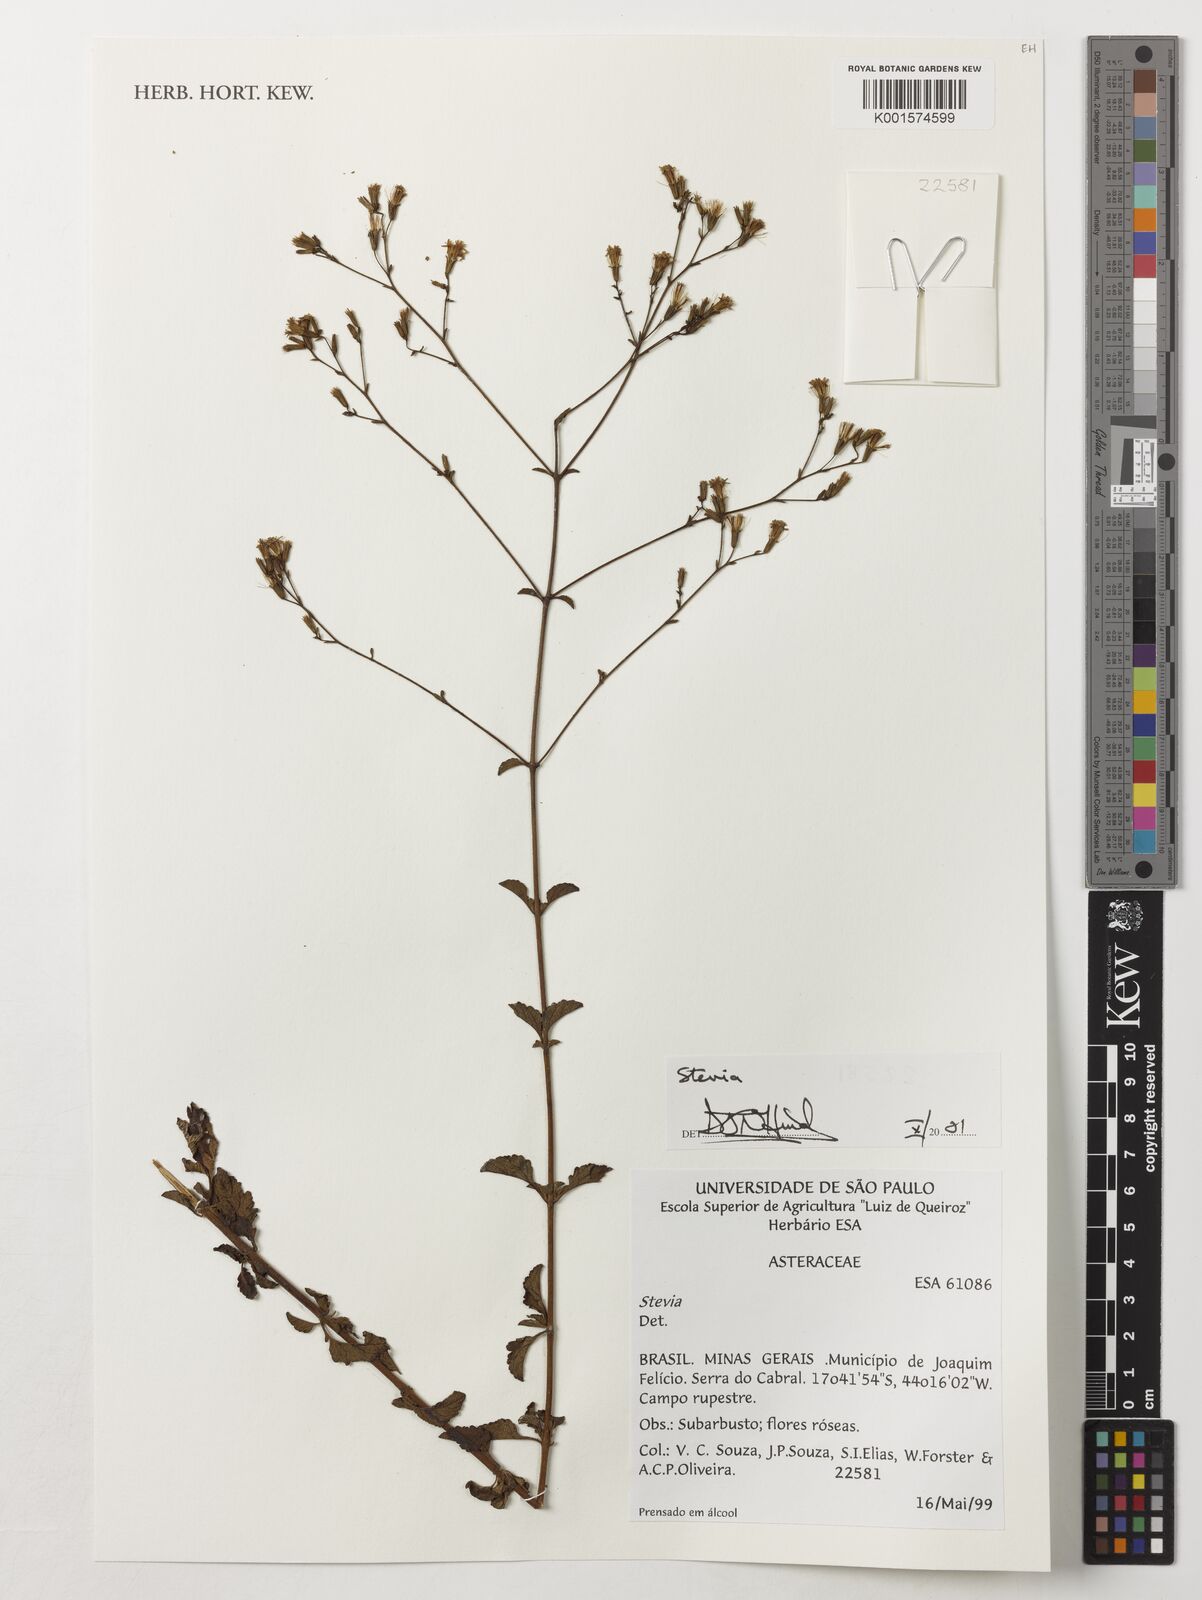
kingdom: Plantae
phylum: Tracheophyta
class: Magnoliopsida
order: Asterales
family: Asteraceae
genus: Stevia
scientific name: Stevia
